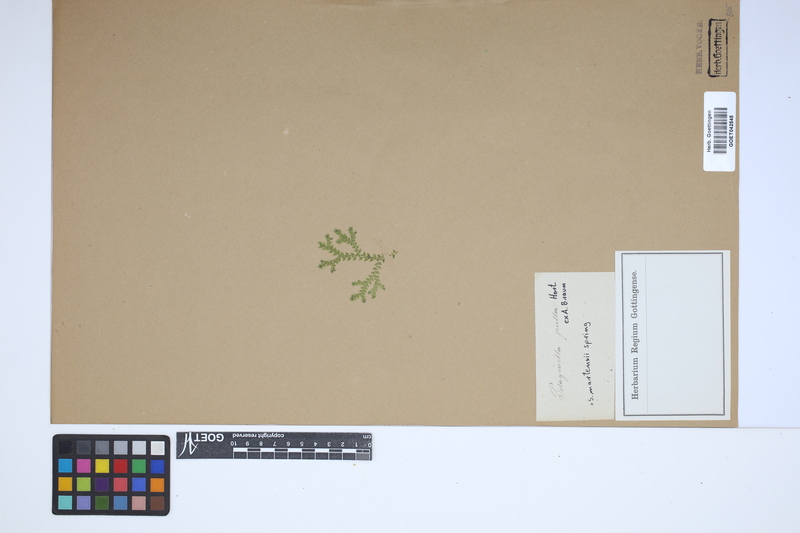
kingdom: Plantae
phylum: Tracheophyta
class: Lycopodiopsida
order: Selaginellales
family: Selaginellaceae
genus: Selaginella
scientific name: Selaginella martensii
